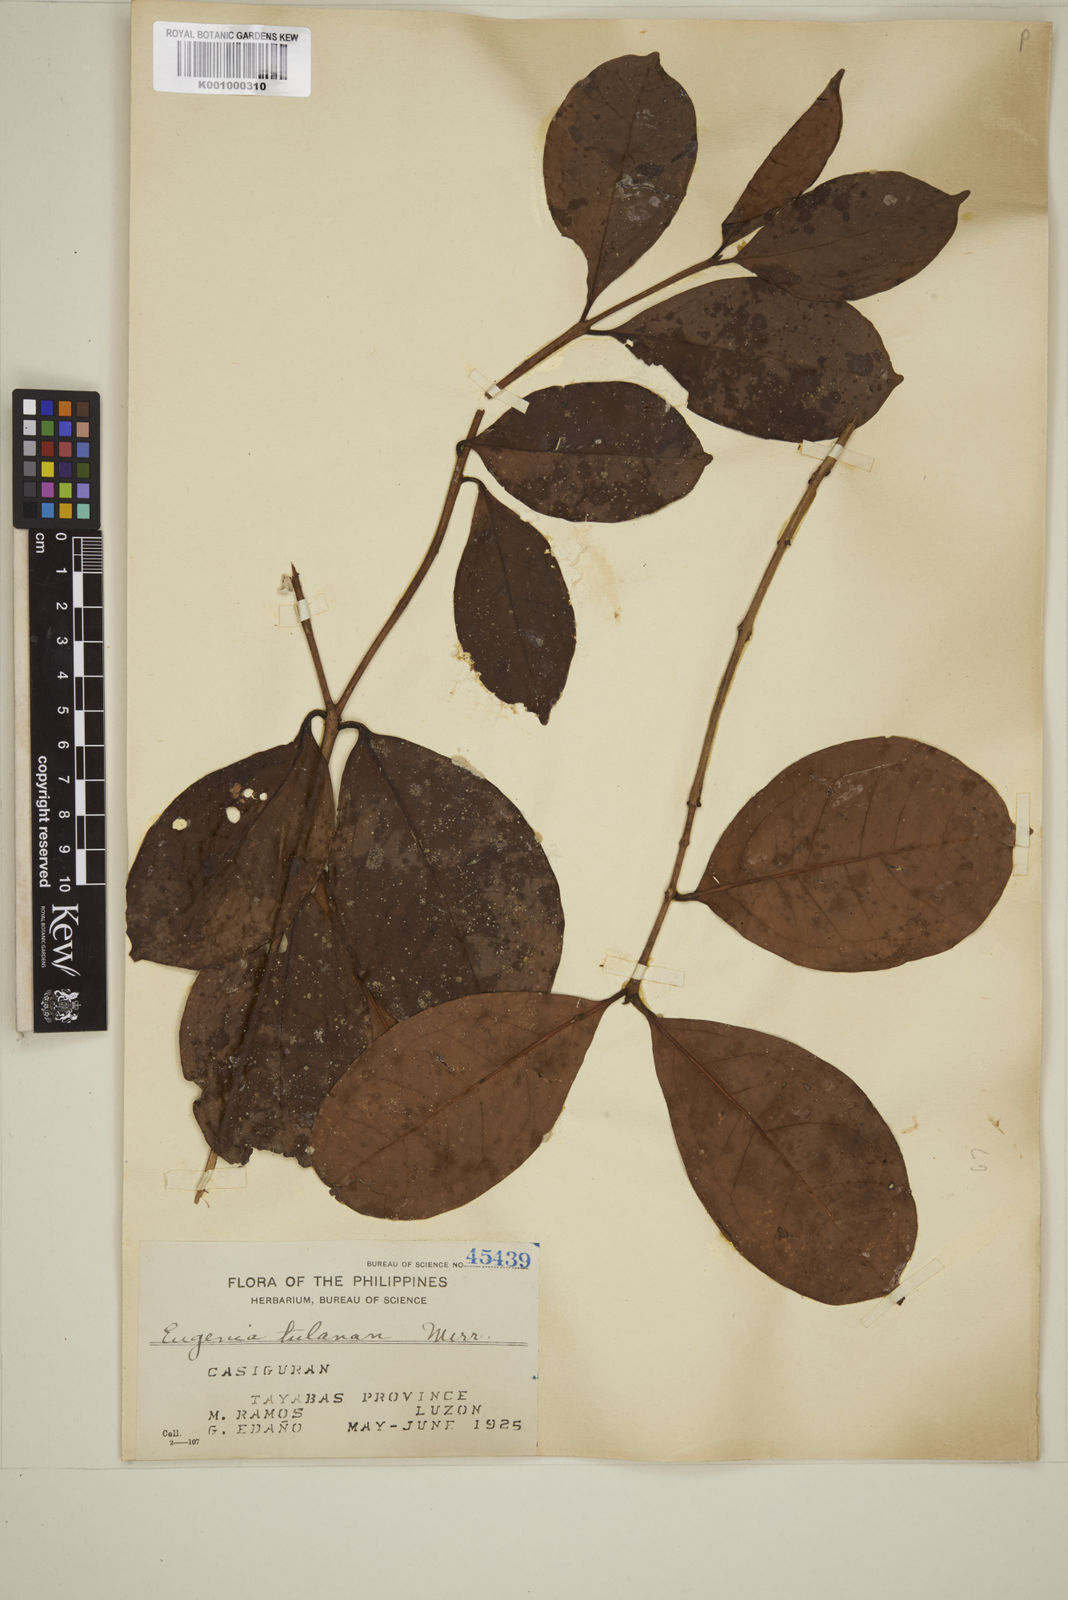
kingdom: Plantae
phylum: Tracheophyta
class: Magnoliopsida
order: Myrtales
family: Myrtaceae
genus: Eugenia
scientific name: Eugenia tulanan
